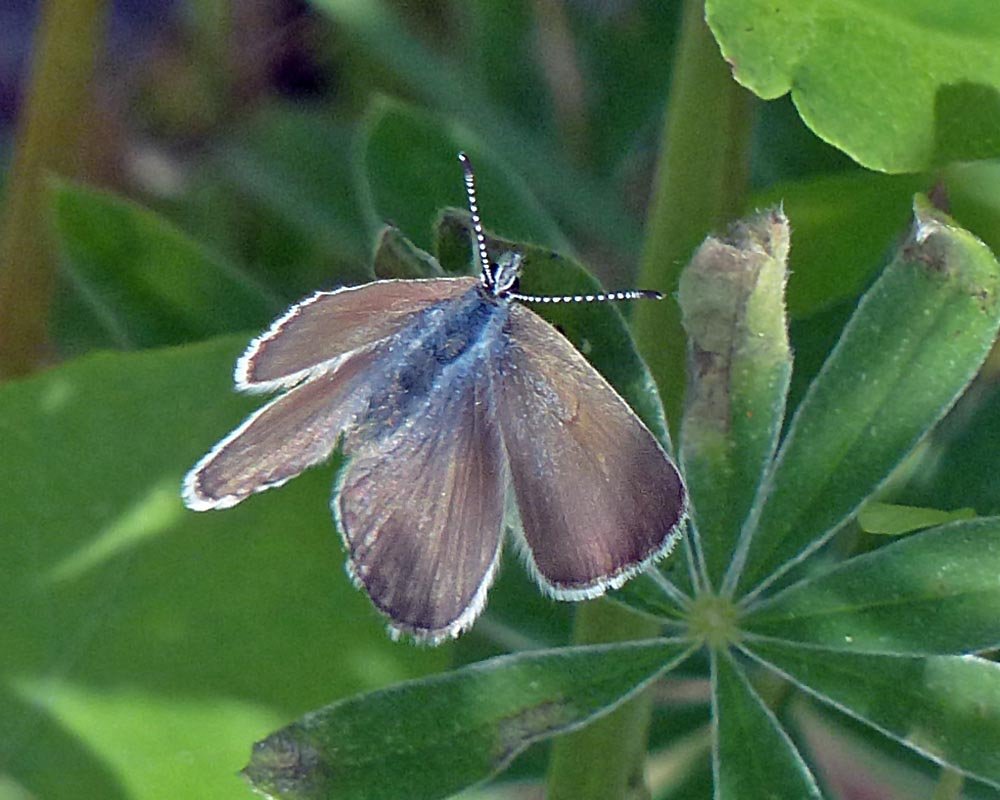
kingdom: Animalia
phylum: Arthropoda
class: Insecta
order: Lepidoptera
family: Lycaenidae
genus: Icaricia
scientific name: Icaricia icarioides
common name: Boisduval's Blue
